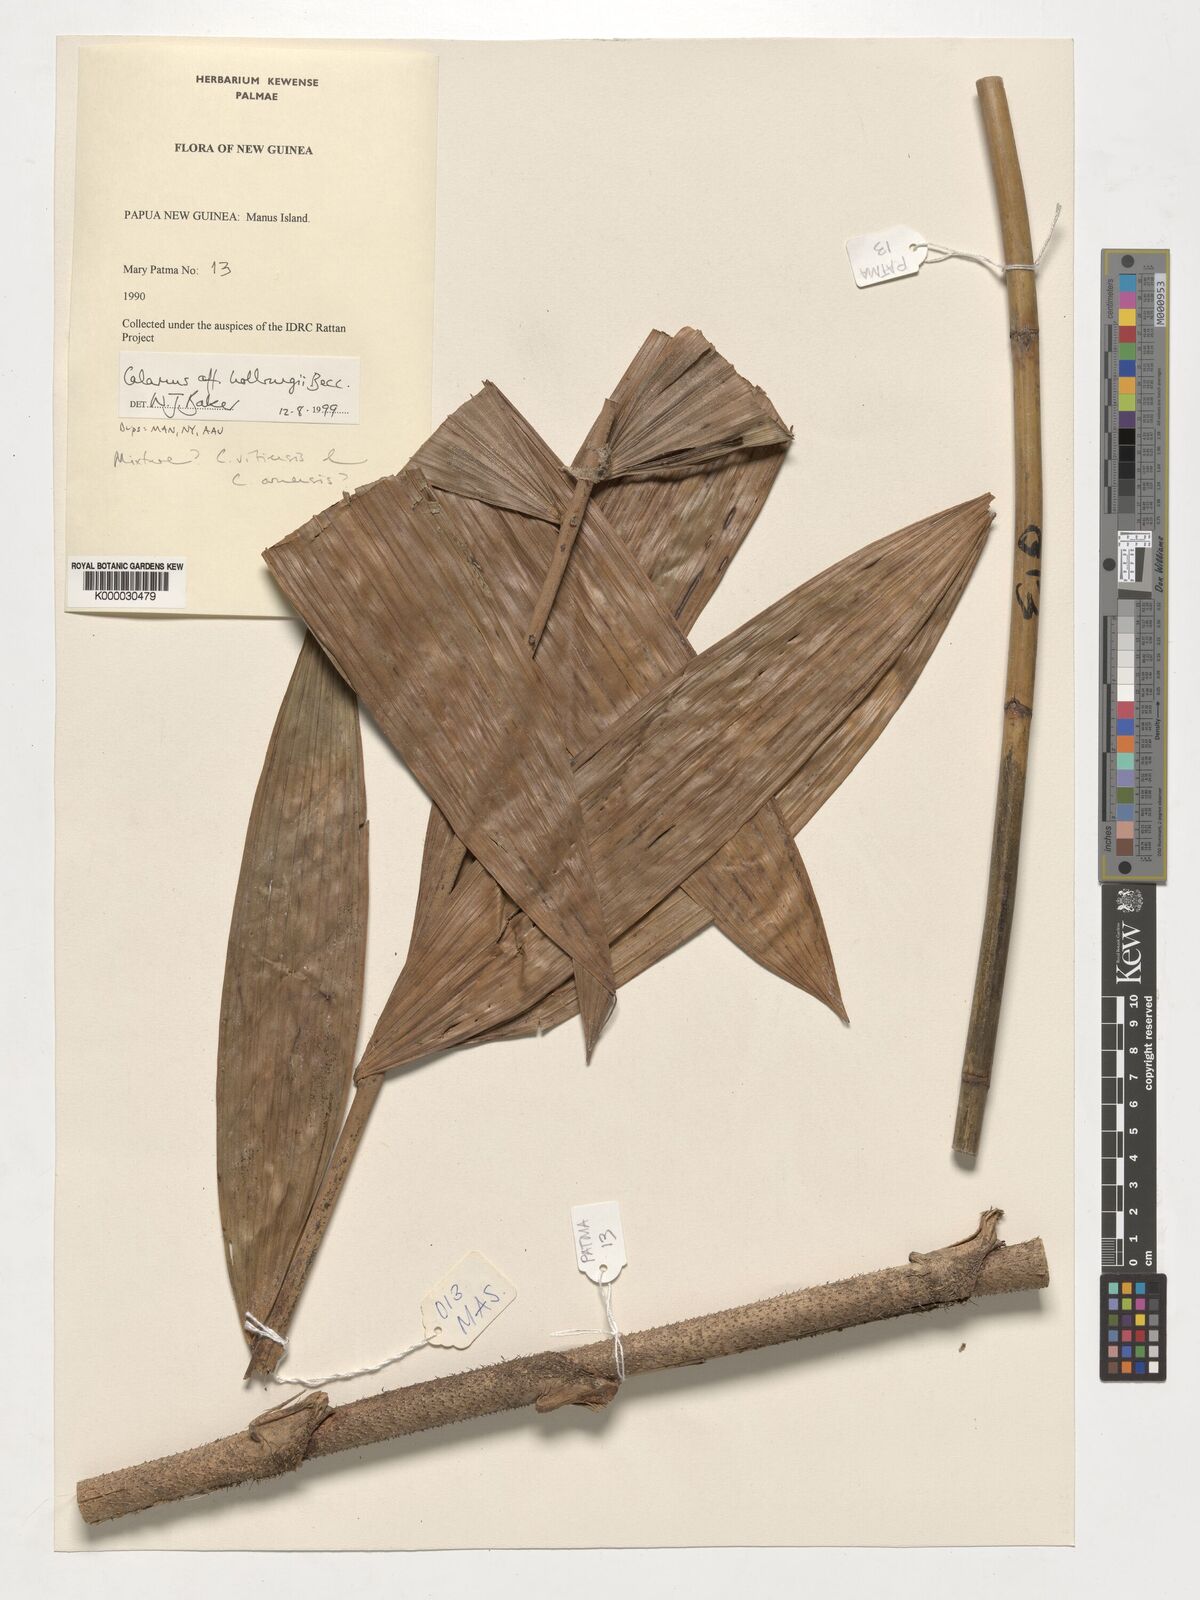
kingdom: Plantae
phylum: Tracheophyta
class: Liliopsida
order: Arecales
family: Arecaceae
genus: Calamus
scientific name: Calamus
